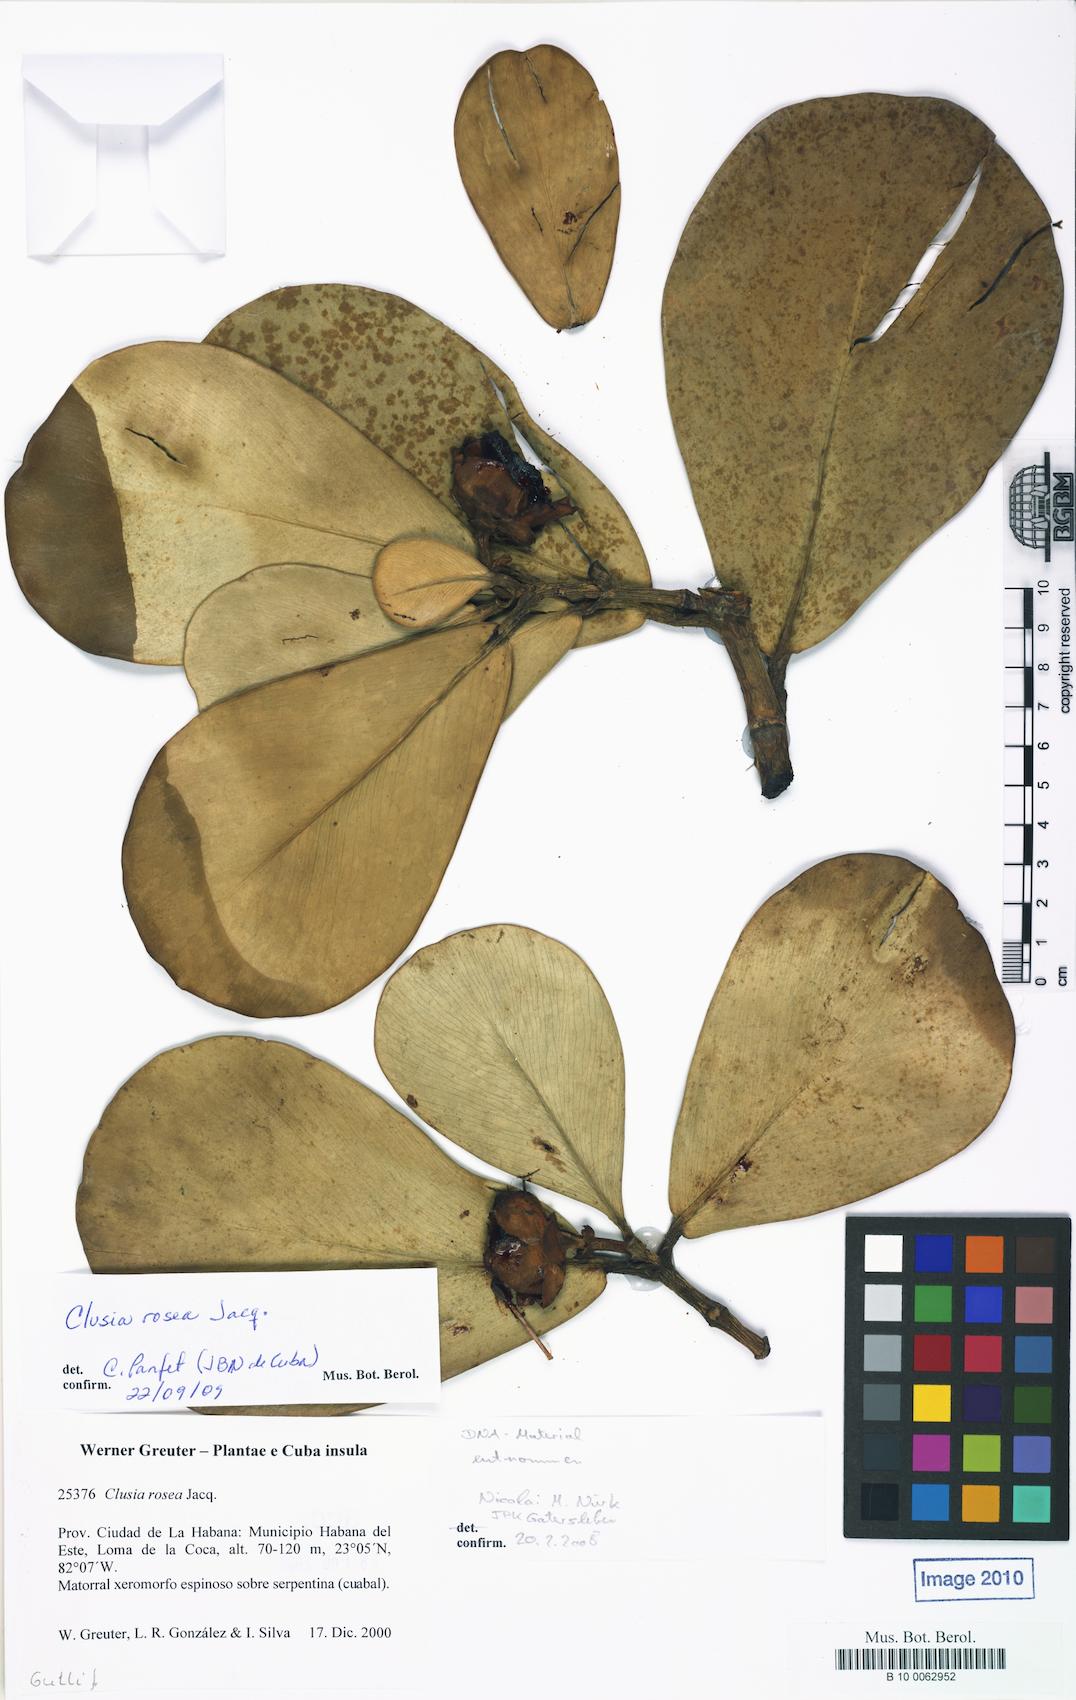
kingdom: Plantae
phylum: Tracheophyta
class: Magnoliopsida
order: Malpighiales
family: Clusiaceae
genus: Clusia
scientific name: Clusia rosea
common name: Scotch attorney
